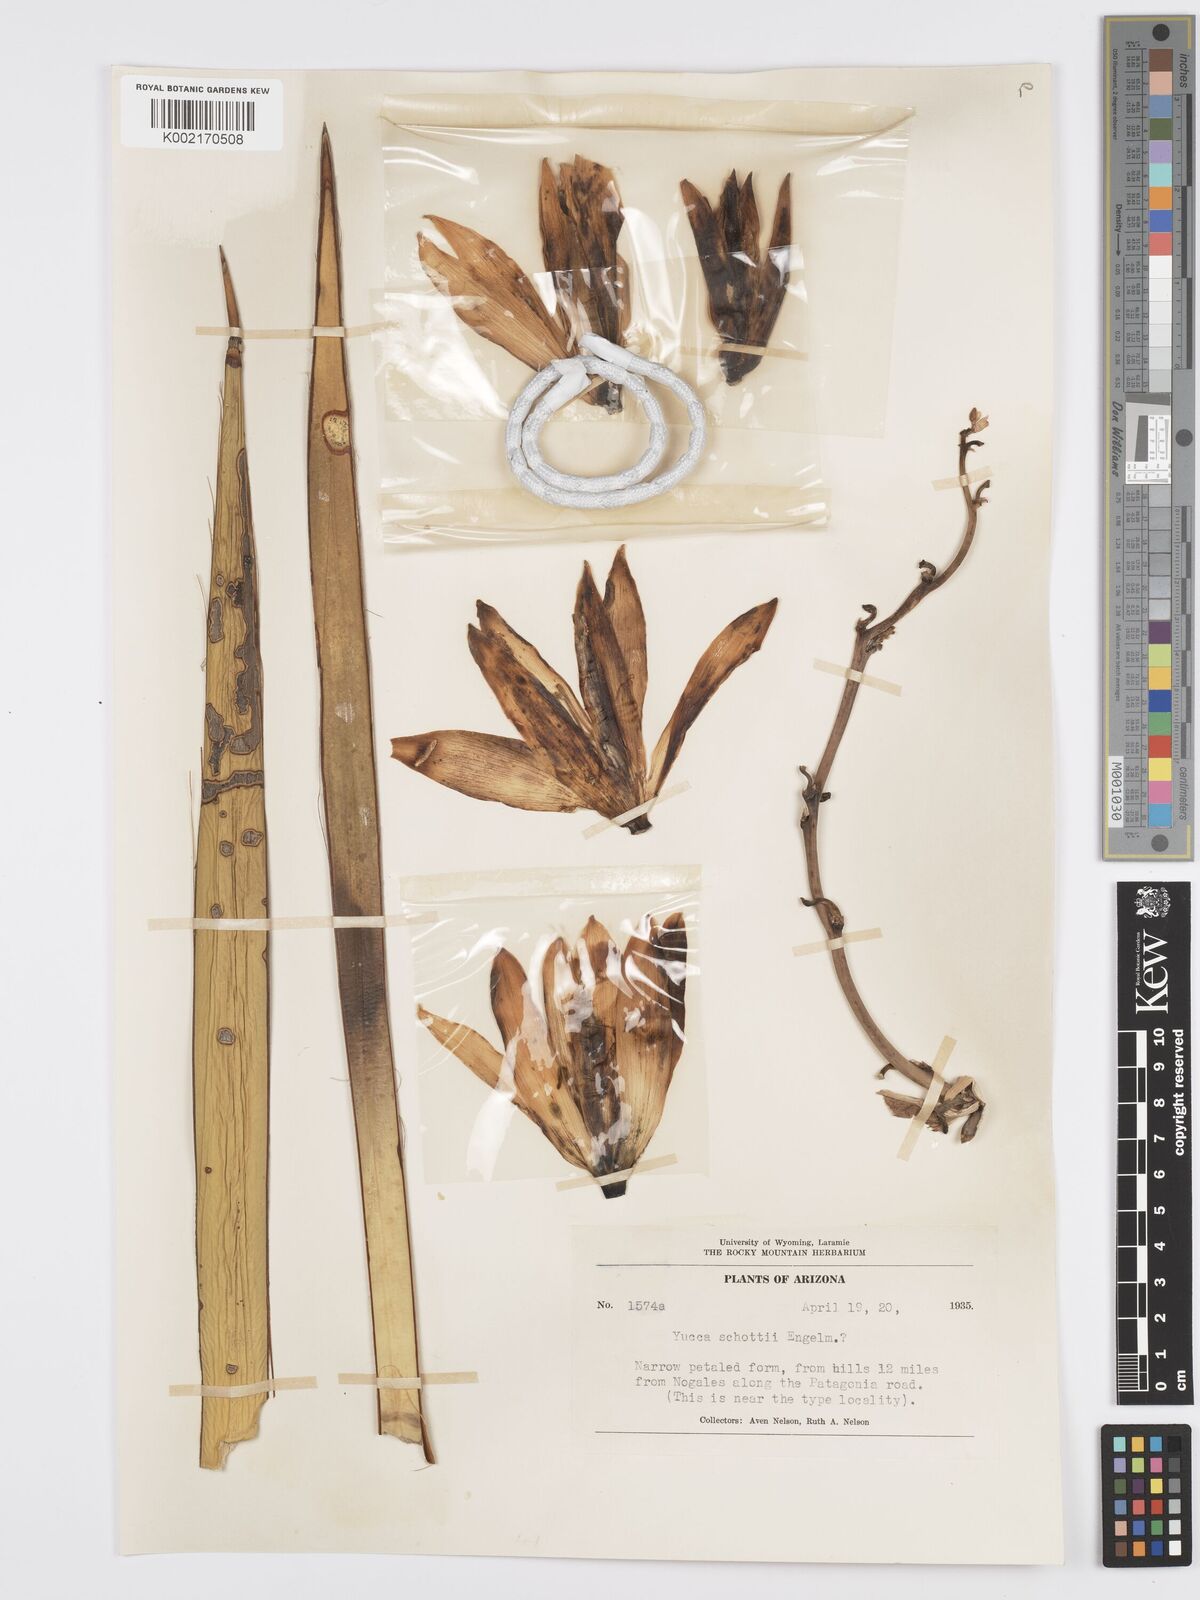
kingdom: Plantae
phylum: Tracheophyta
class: Liliopsida
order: Asparagales
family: Asparagaceae
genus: Yucca
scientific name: Yucca schottii
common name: Hoary yucca
